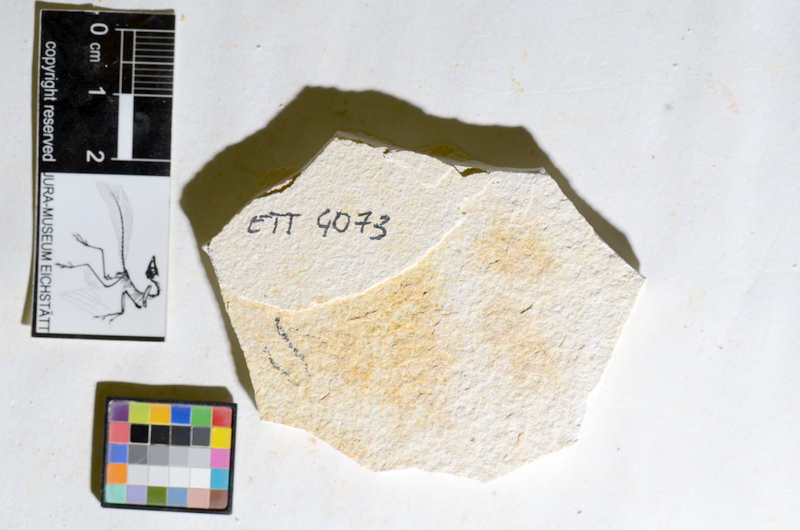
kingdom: Animalia
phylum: Chordata
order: Salmoniformes
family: Orthogonikleithridae
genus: Orthogonikleithrus
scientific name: Orthogonikleithrus hoelli
